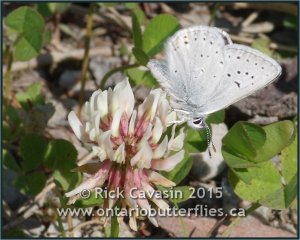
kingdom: Animalia
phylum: Arthropoda
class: Insecta
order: Lepidoptera
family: Lycaenidae
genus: Plebejus
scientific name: Plebejus saepiolus
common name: Greenish Blue
